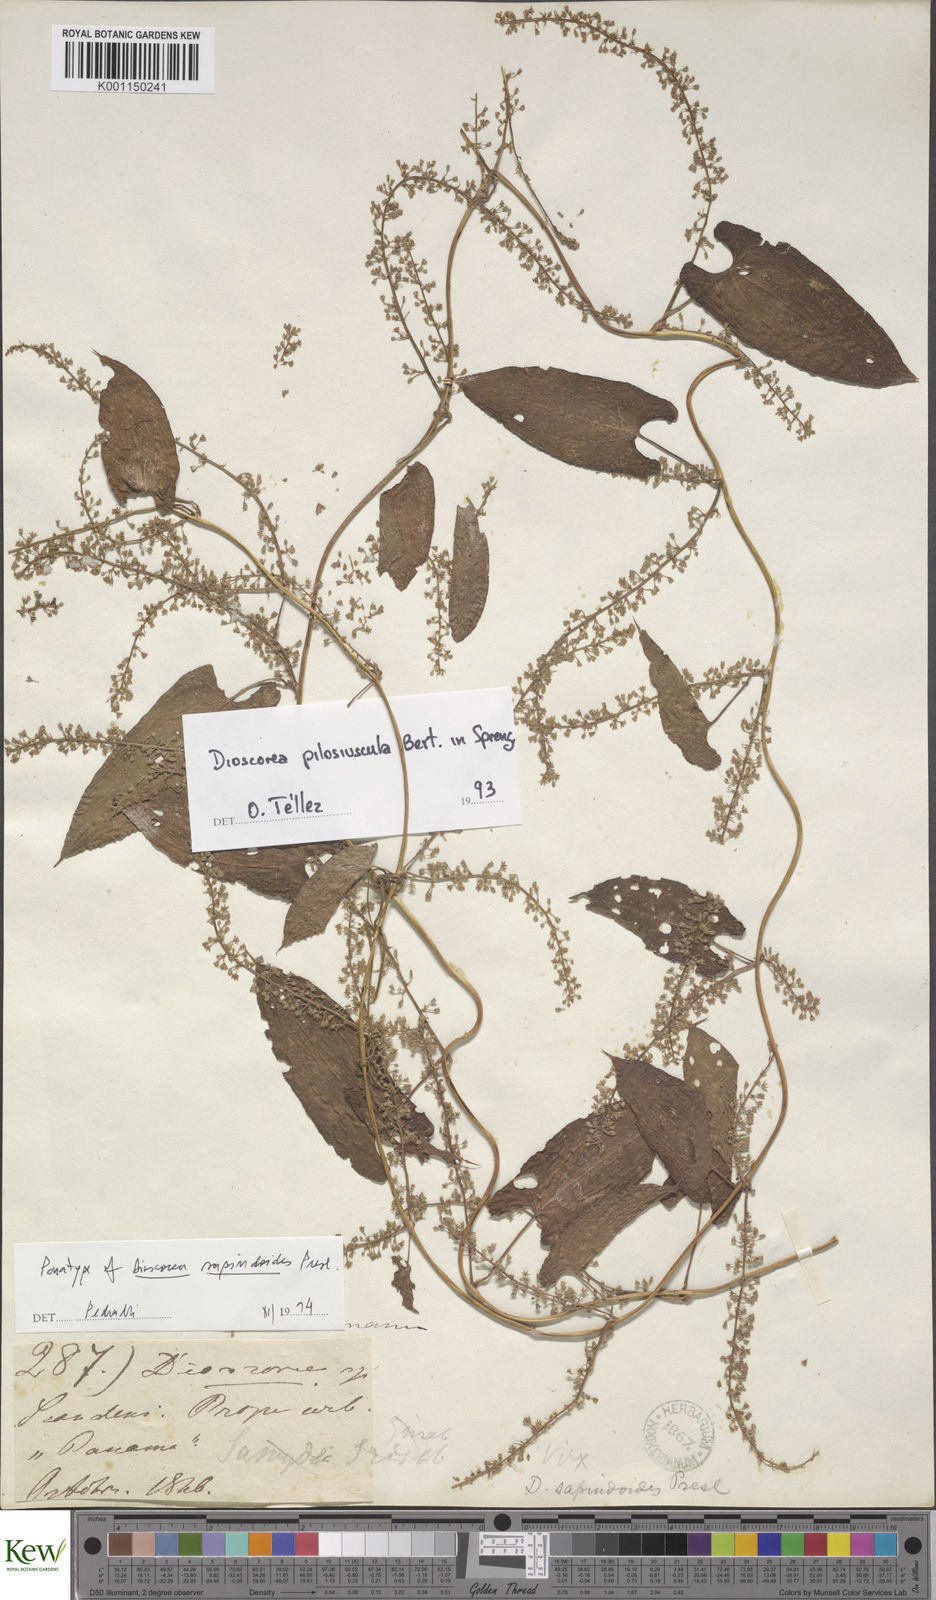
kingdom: Plantae
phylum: Tracheophyta
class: Liliopsida
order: Dioscoreales
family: Dioscoreaceae
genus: Dioscorea
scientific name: Dioscorea pilosiuscula
